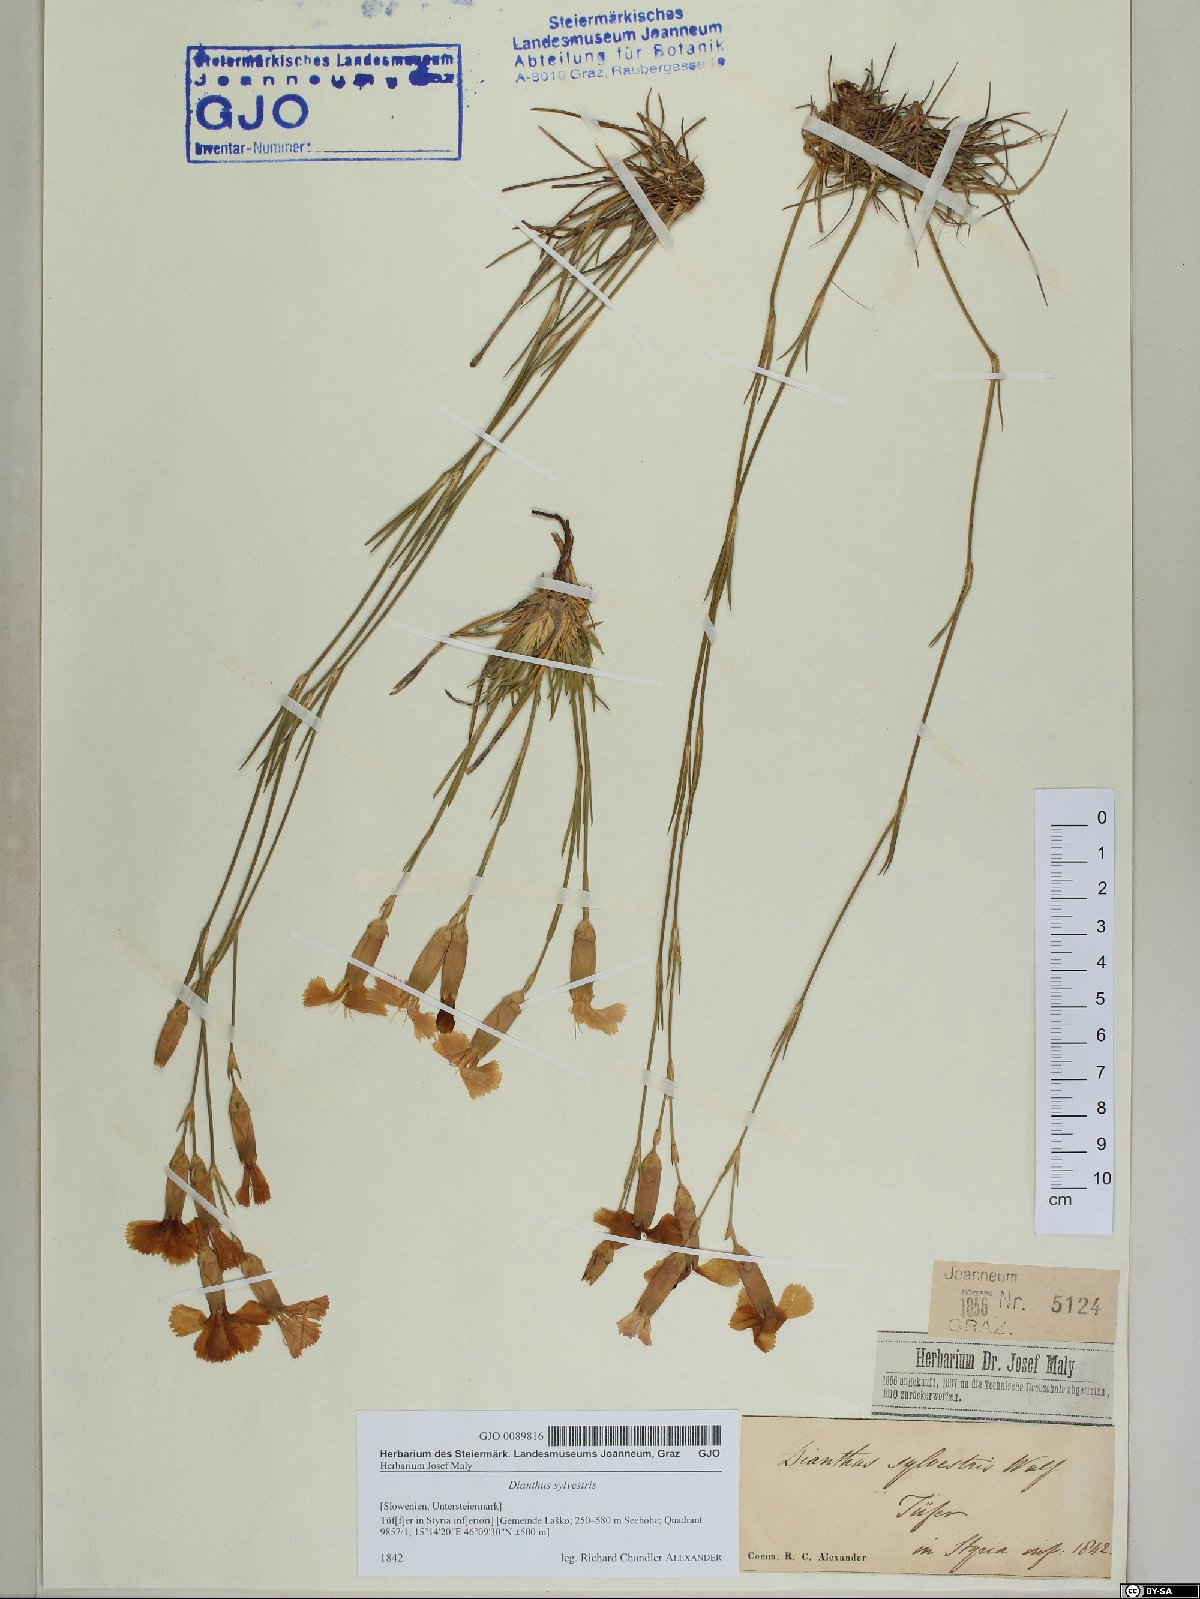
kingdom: Plantae
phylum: Tracheophyta
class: Magnoliopsida
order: Caryophyllales
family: Caryophyllaceae
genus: Dianthus
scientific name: Dianthus sylvestris
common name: Wood pink
